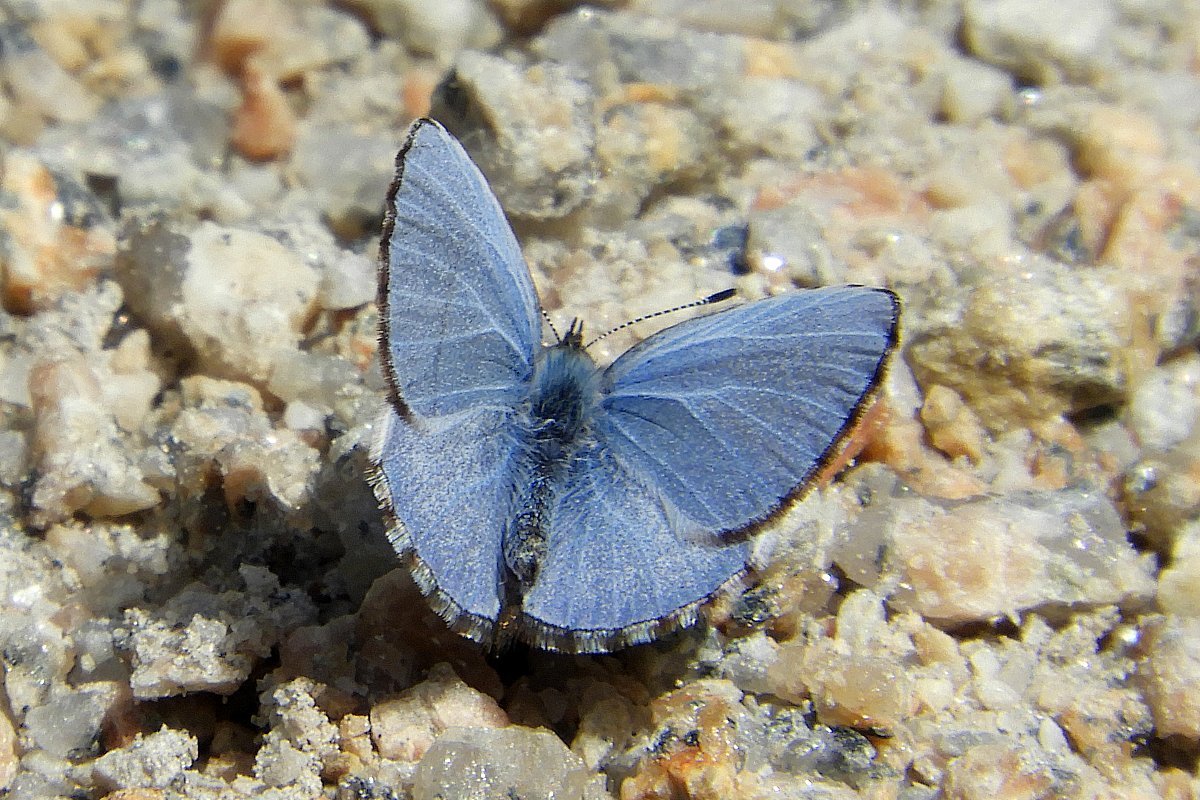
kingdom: Animalia
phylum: Arthropoda
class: Insecta
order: Lepidoptera
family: Lycaenidae
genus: Celastrina
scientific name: Celastrina lucia
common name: Northern Spring Azure
